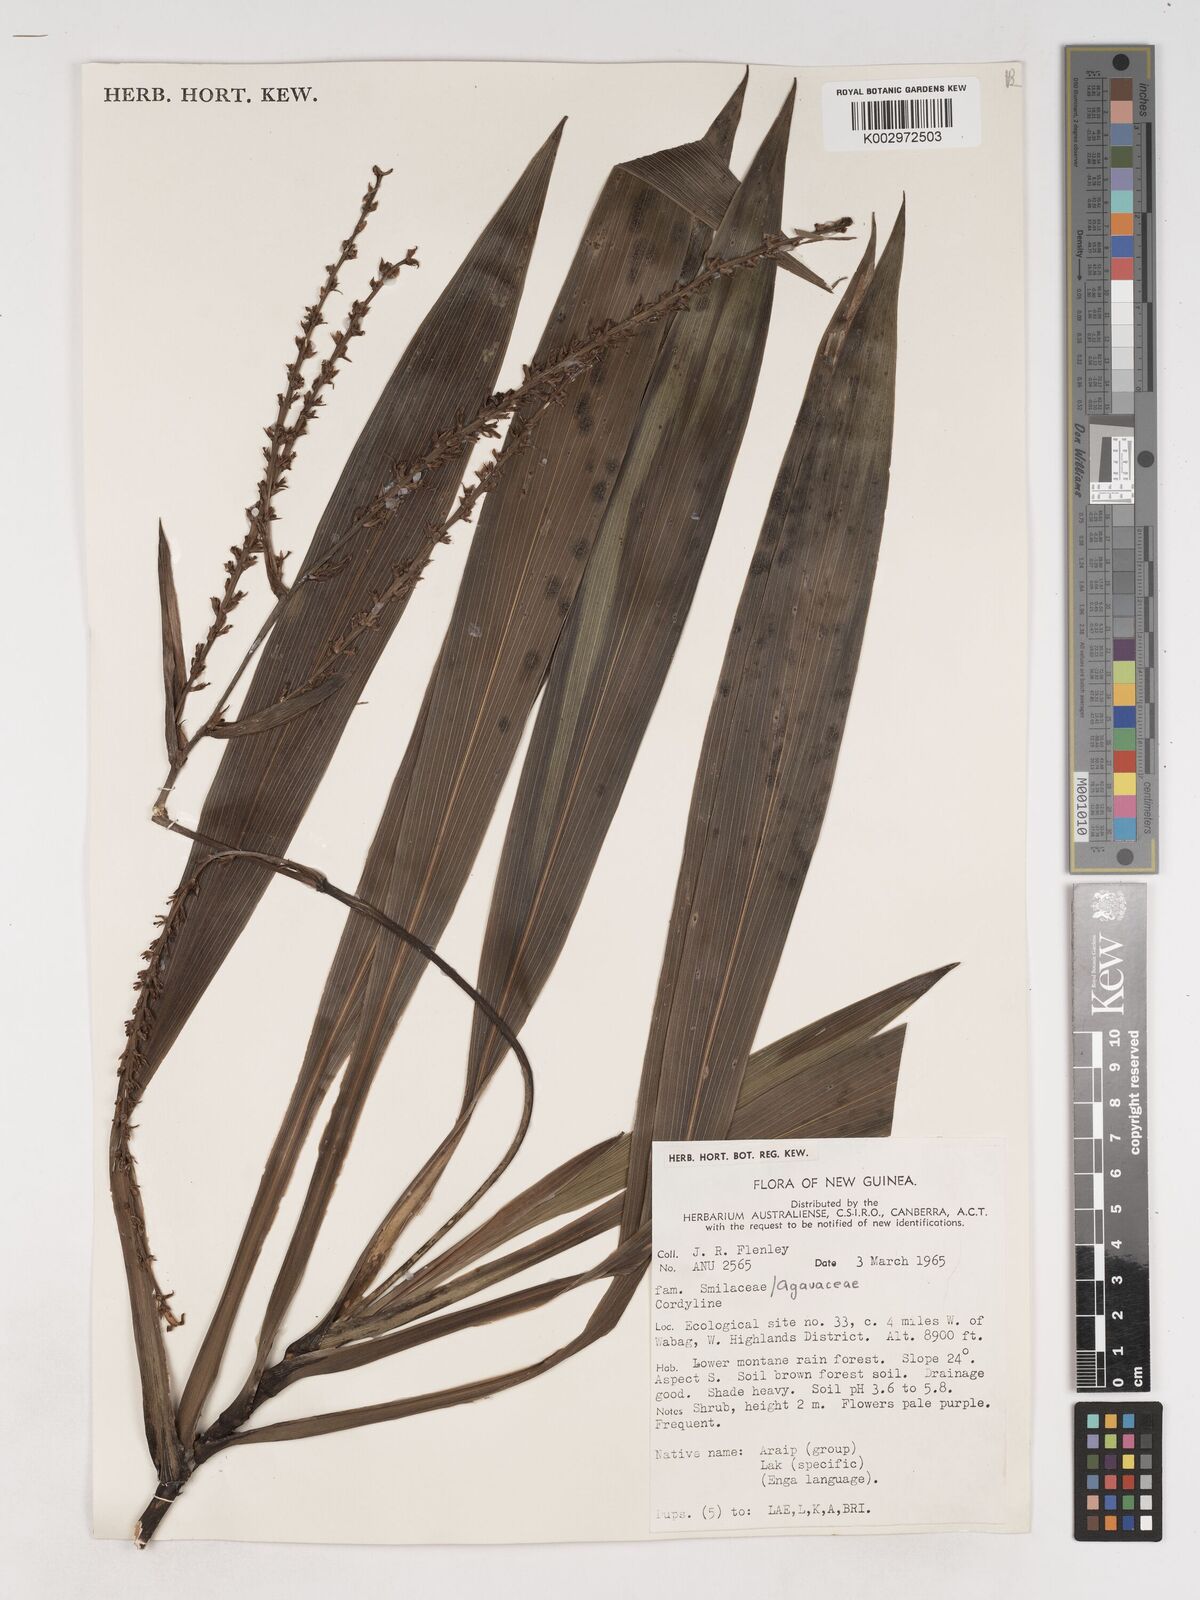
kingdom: Plantae
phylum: Tracheophyta
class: Liliopsida
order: Asparagales
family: Asparagaceae
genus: Cordyline
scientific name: Cordyline
